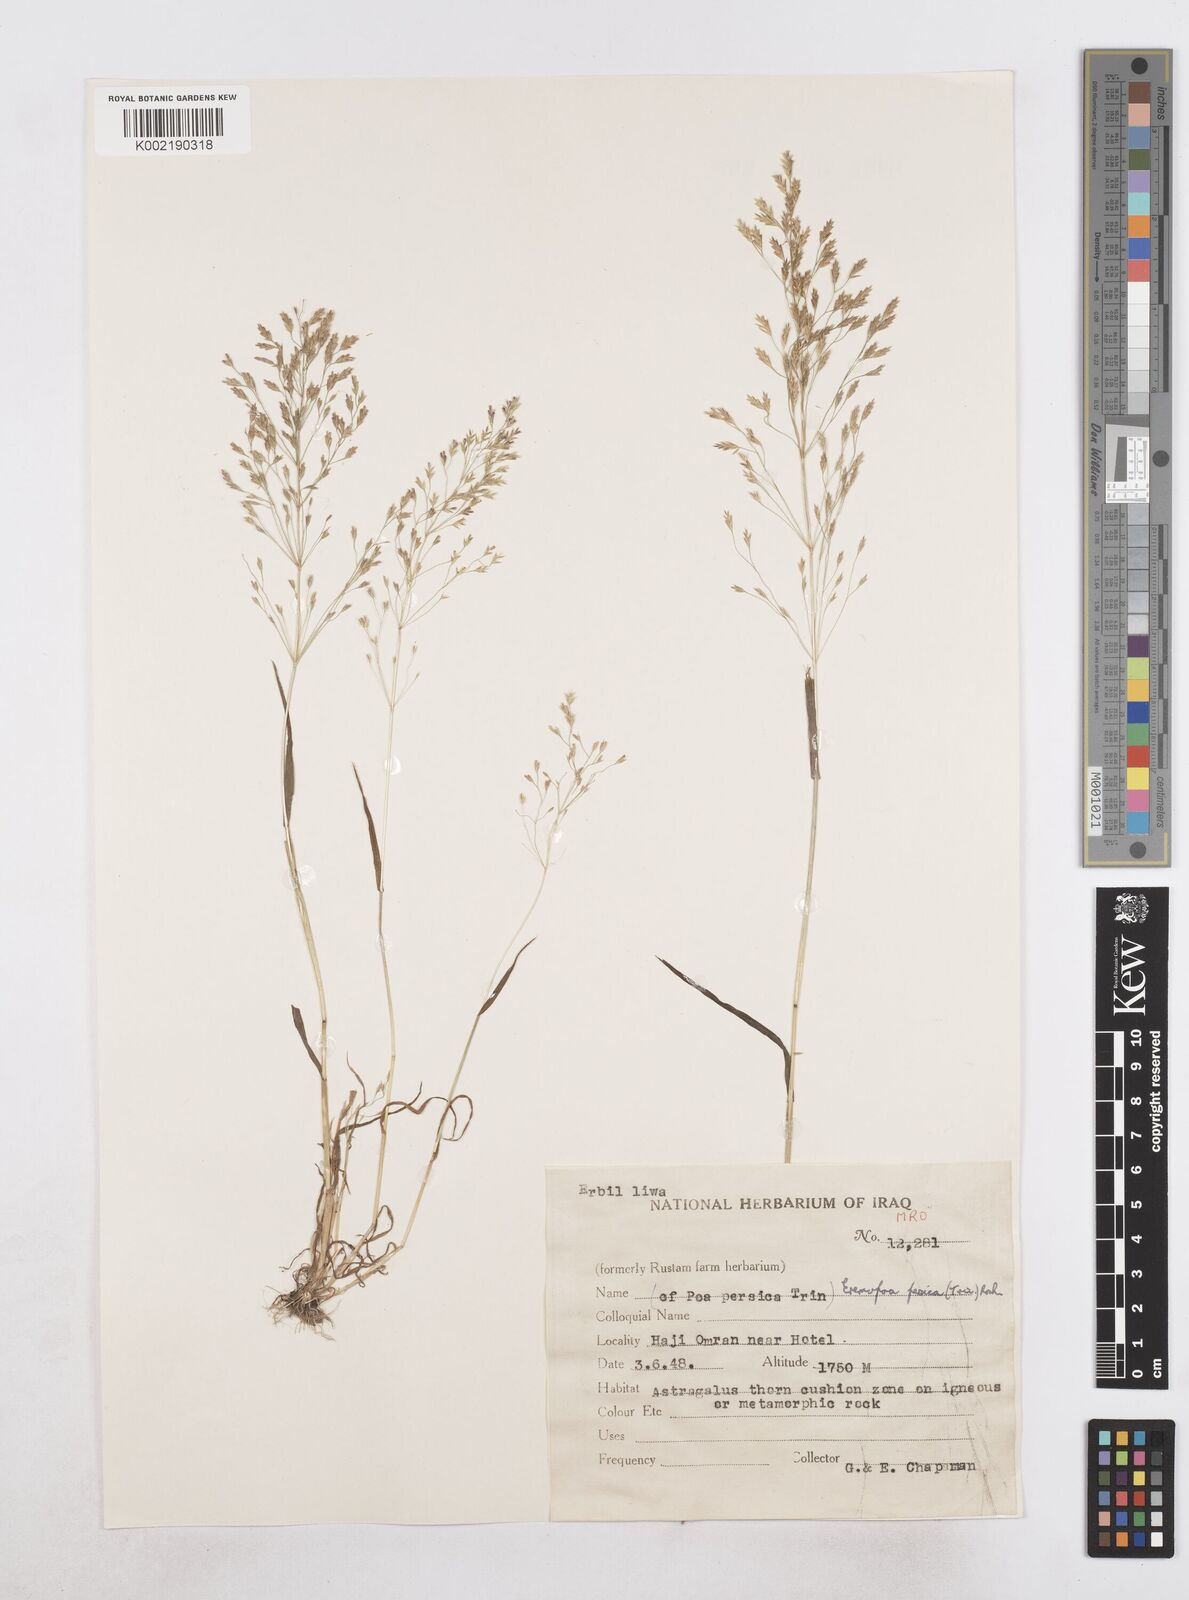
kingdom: Plantae
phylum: Tracheophyta
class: Liliopsida
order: Poales
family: Poaceae
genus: Poa
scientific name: Poa persica
